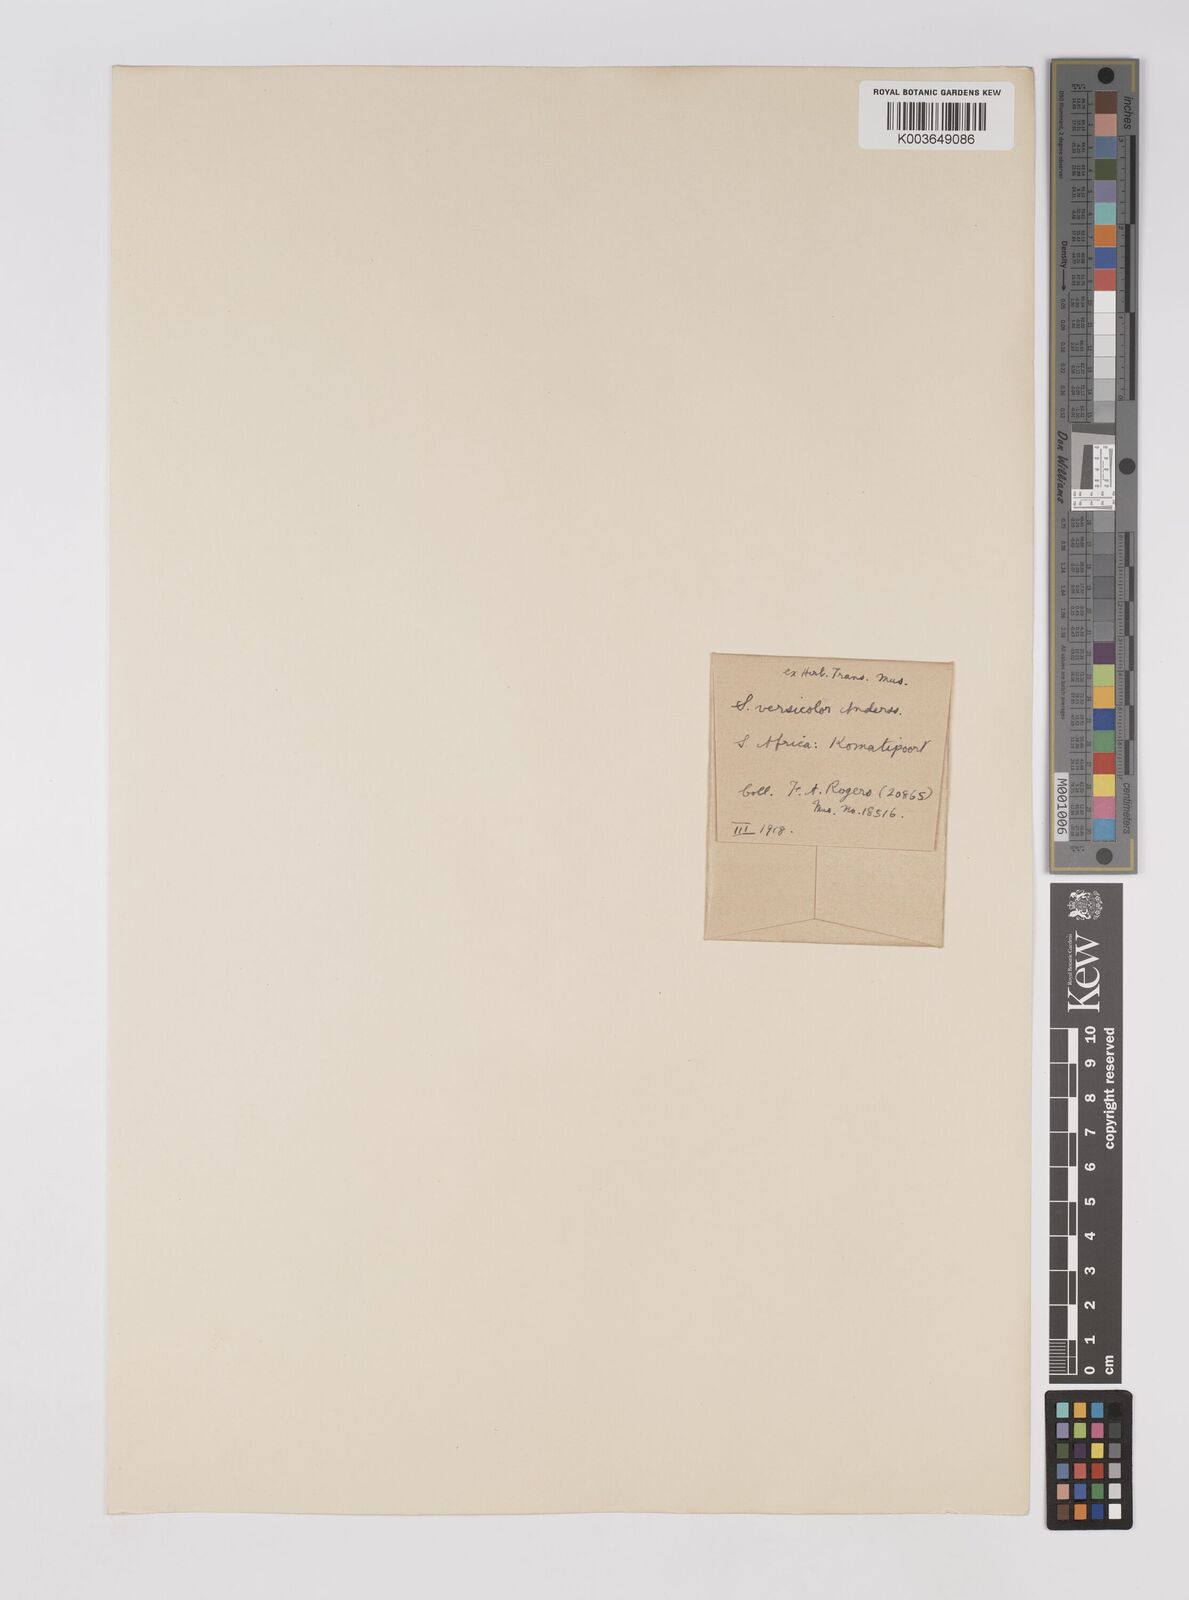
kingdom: Plantae
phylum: Tracheophyta
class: Liliopsida
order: Poales
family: Poaceae
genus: Sarga
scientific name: Sarga versicolor
